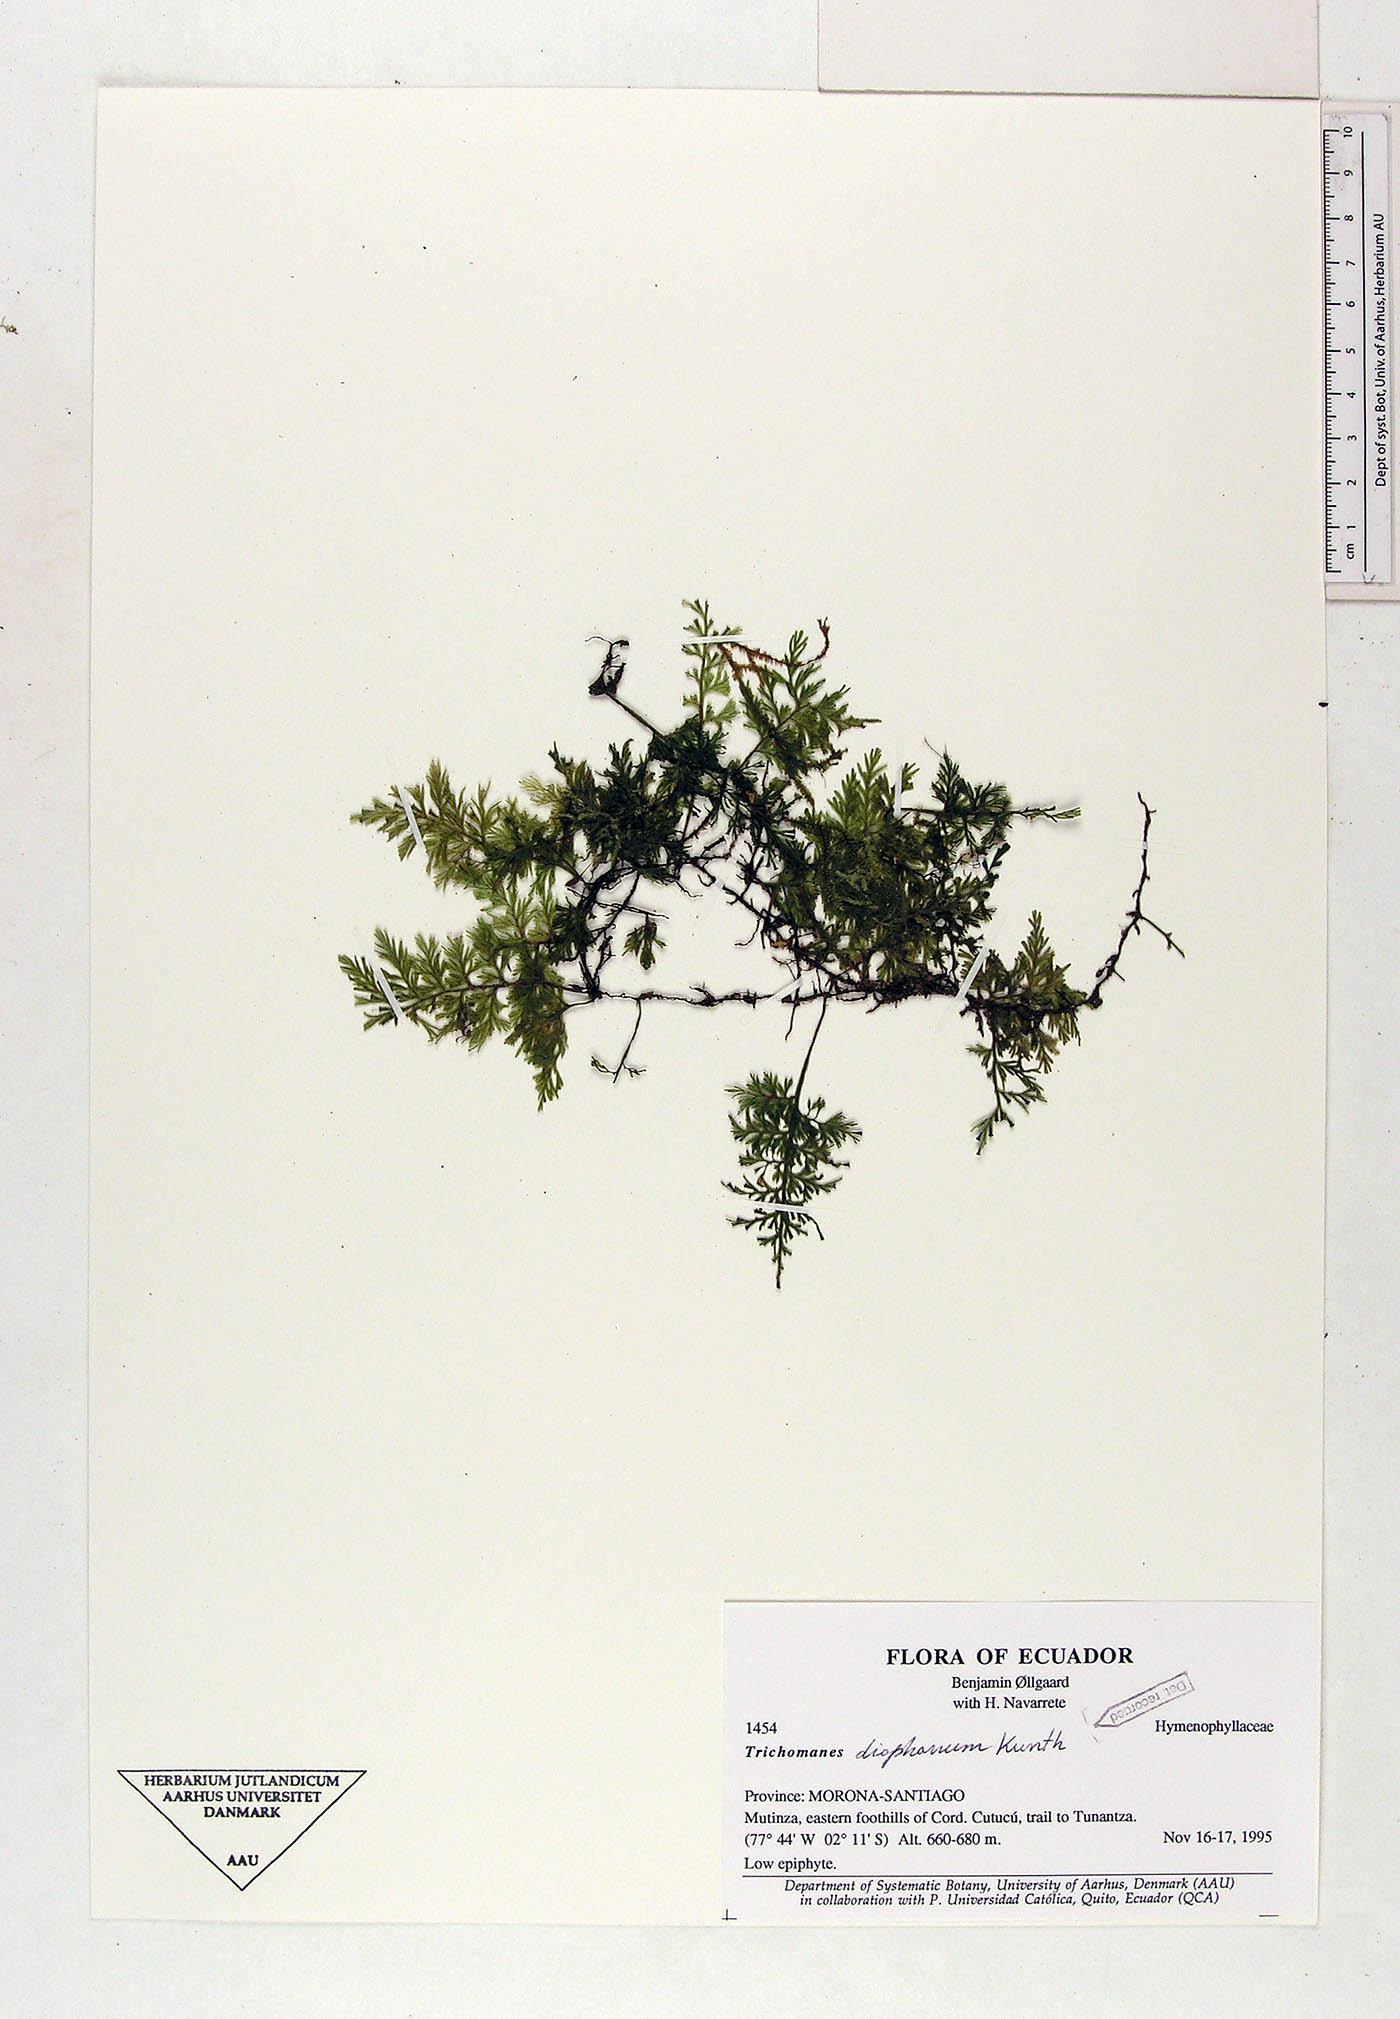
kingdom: Plantae
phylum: Tracheophyta
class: Polypodiopsida
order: Hymenophyllales
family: Hymenophyllaceae
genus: Polyphlebium
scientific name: Polyphlebium diaphanum
